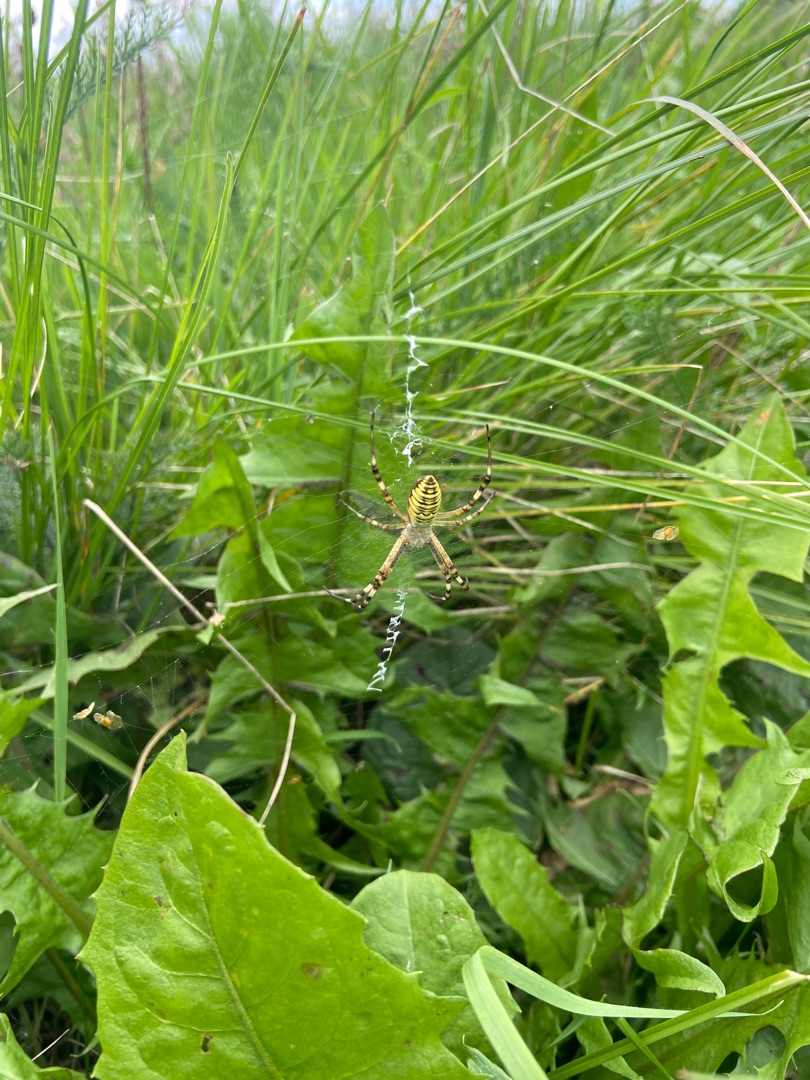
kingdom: Animalia
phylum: Arthropoda
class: Arachnida
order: Araneae
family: Araneidae
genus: Argiope
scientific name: Argiope bruennichi
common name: Hvepseedderkop
